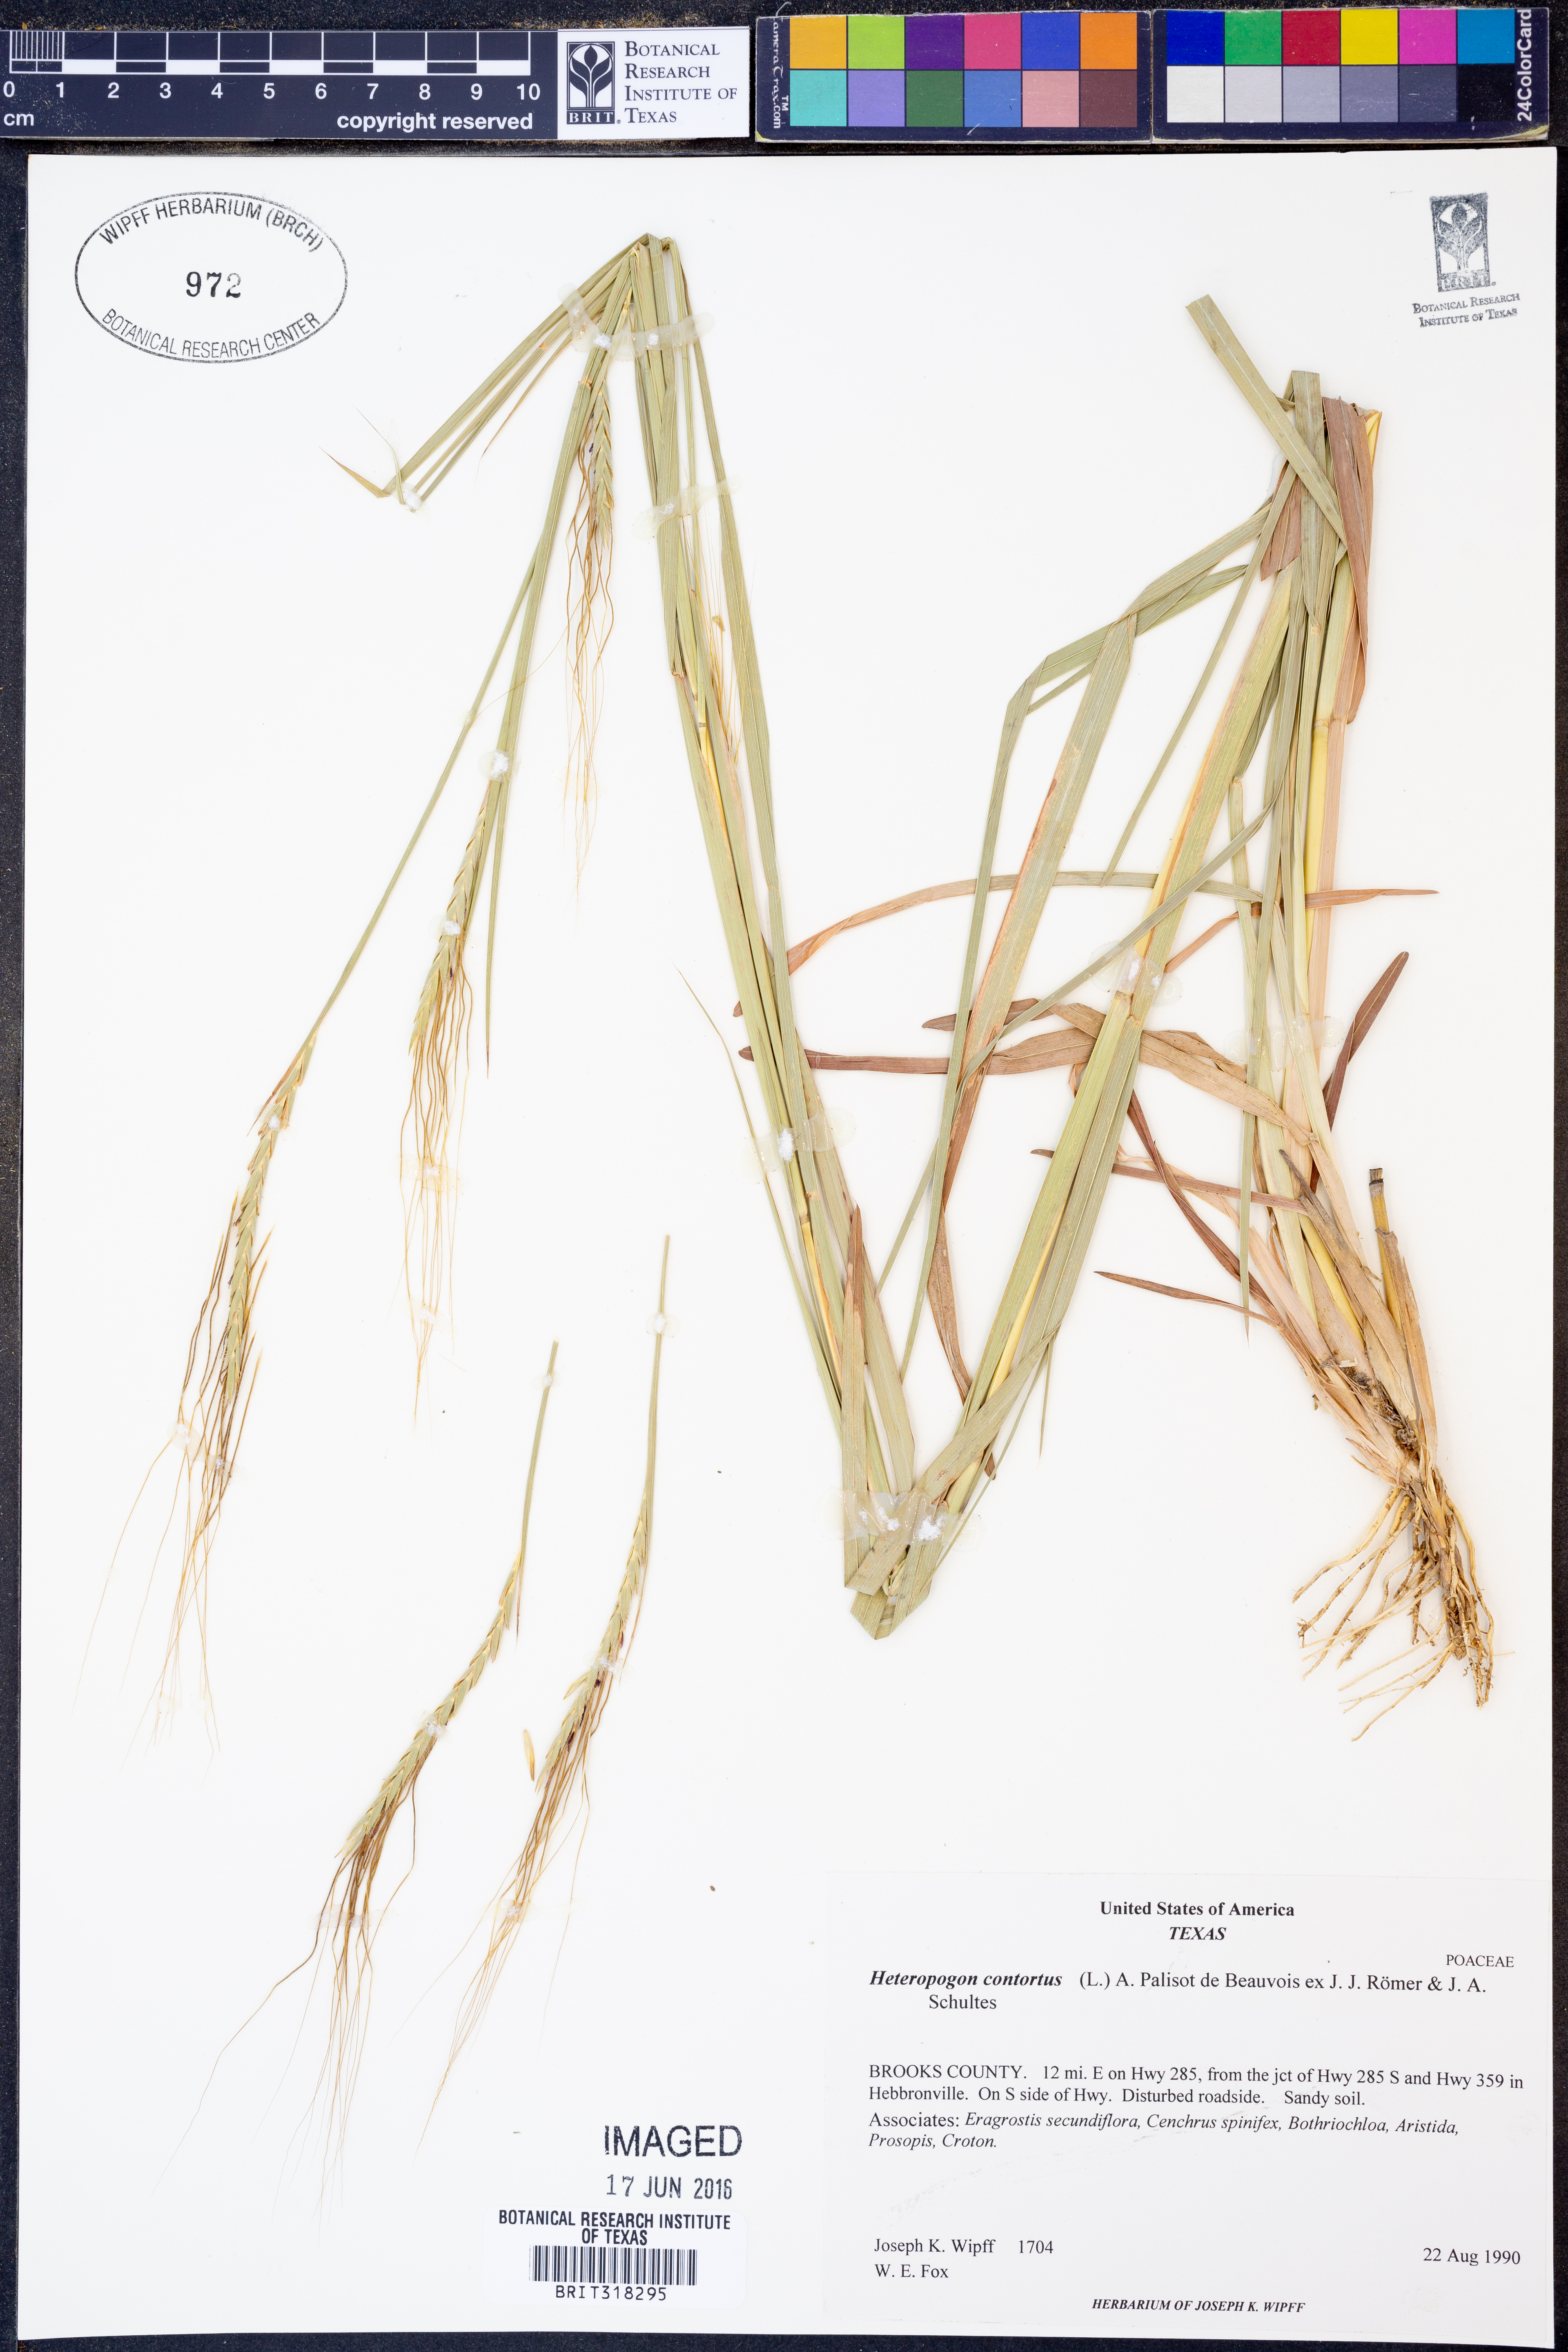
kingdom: Plantae
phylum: Tracheophyta
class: Liliopsida
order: Poales
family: Poaceae
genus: Heteropogon
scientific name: Heteropogon contortus
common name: Tanglehead
